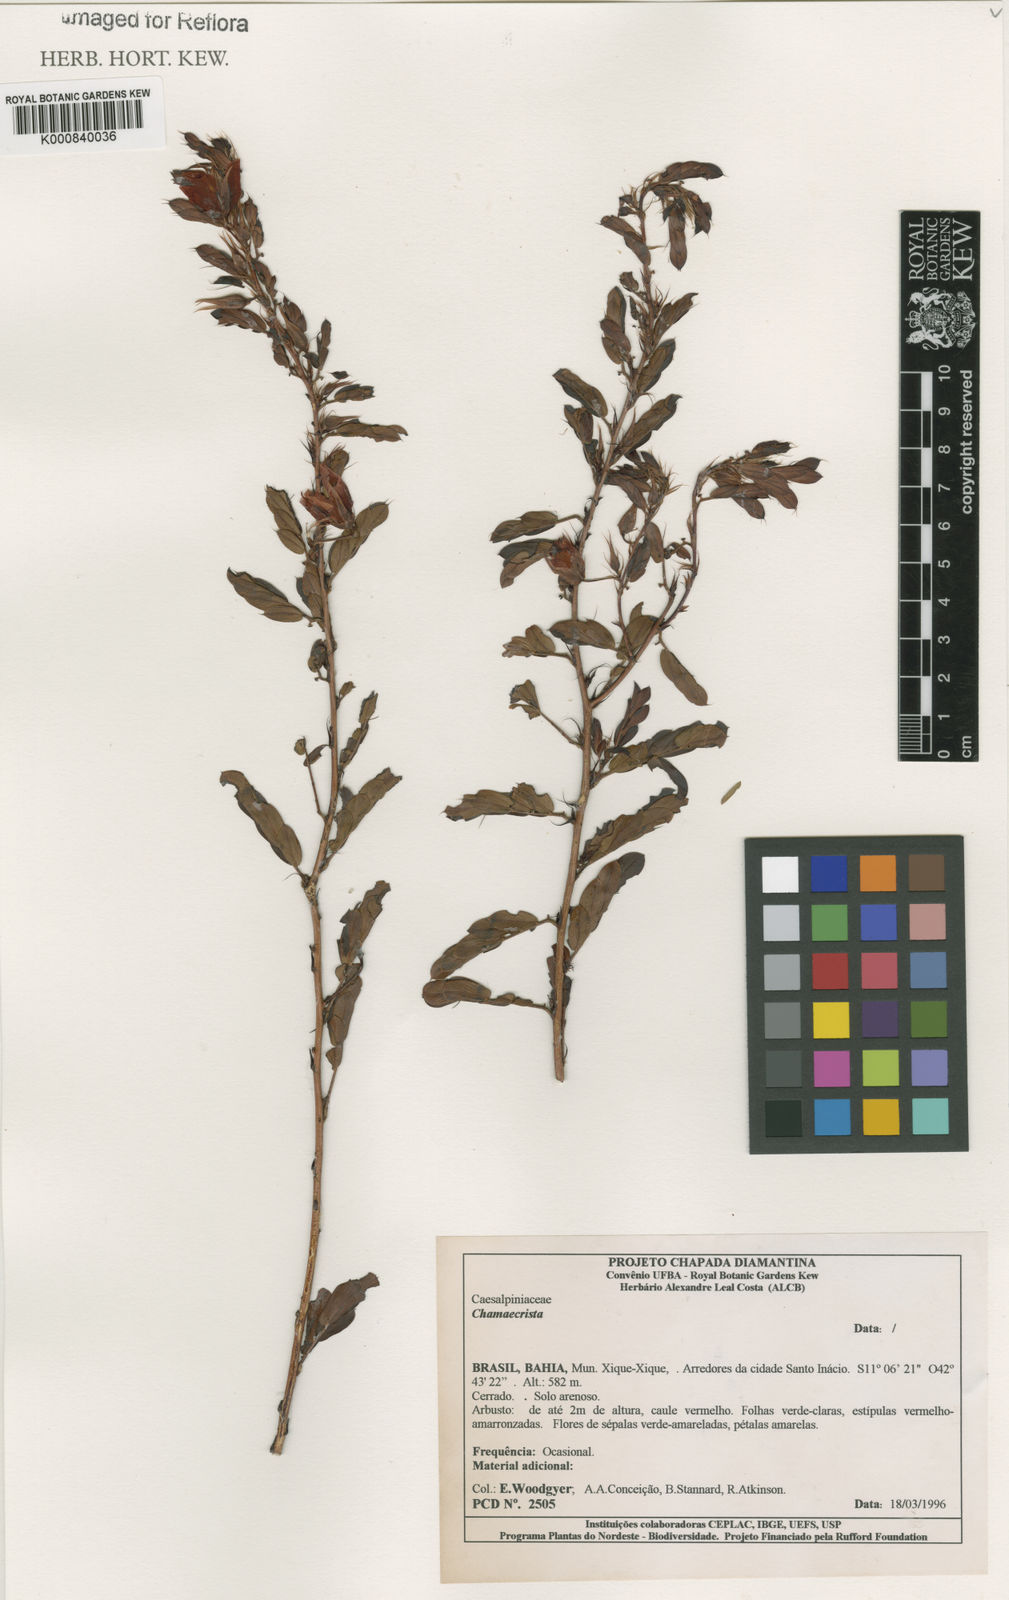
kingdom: Plantae
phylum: Tracheophyta
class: Magnoliopsida
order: Fabales
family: Fabaceae
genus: Chamaecrista
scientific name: Chamaecrista
